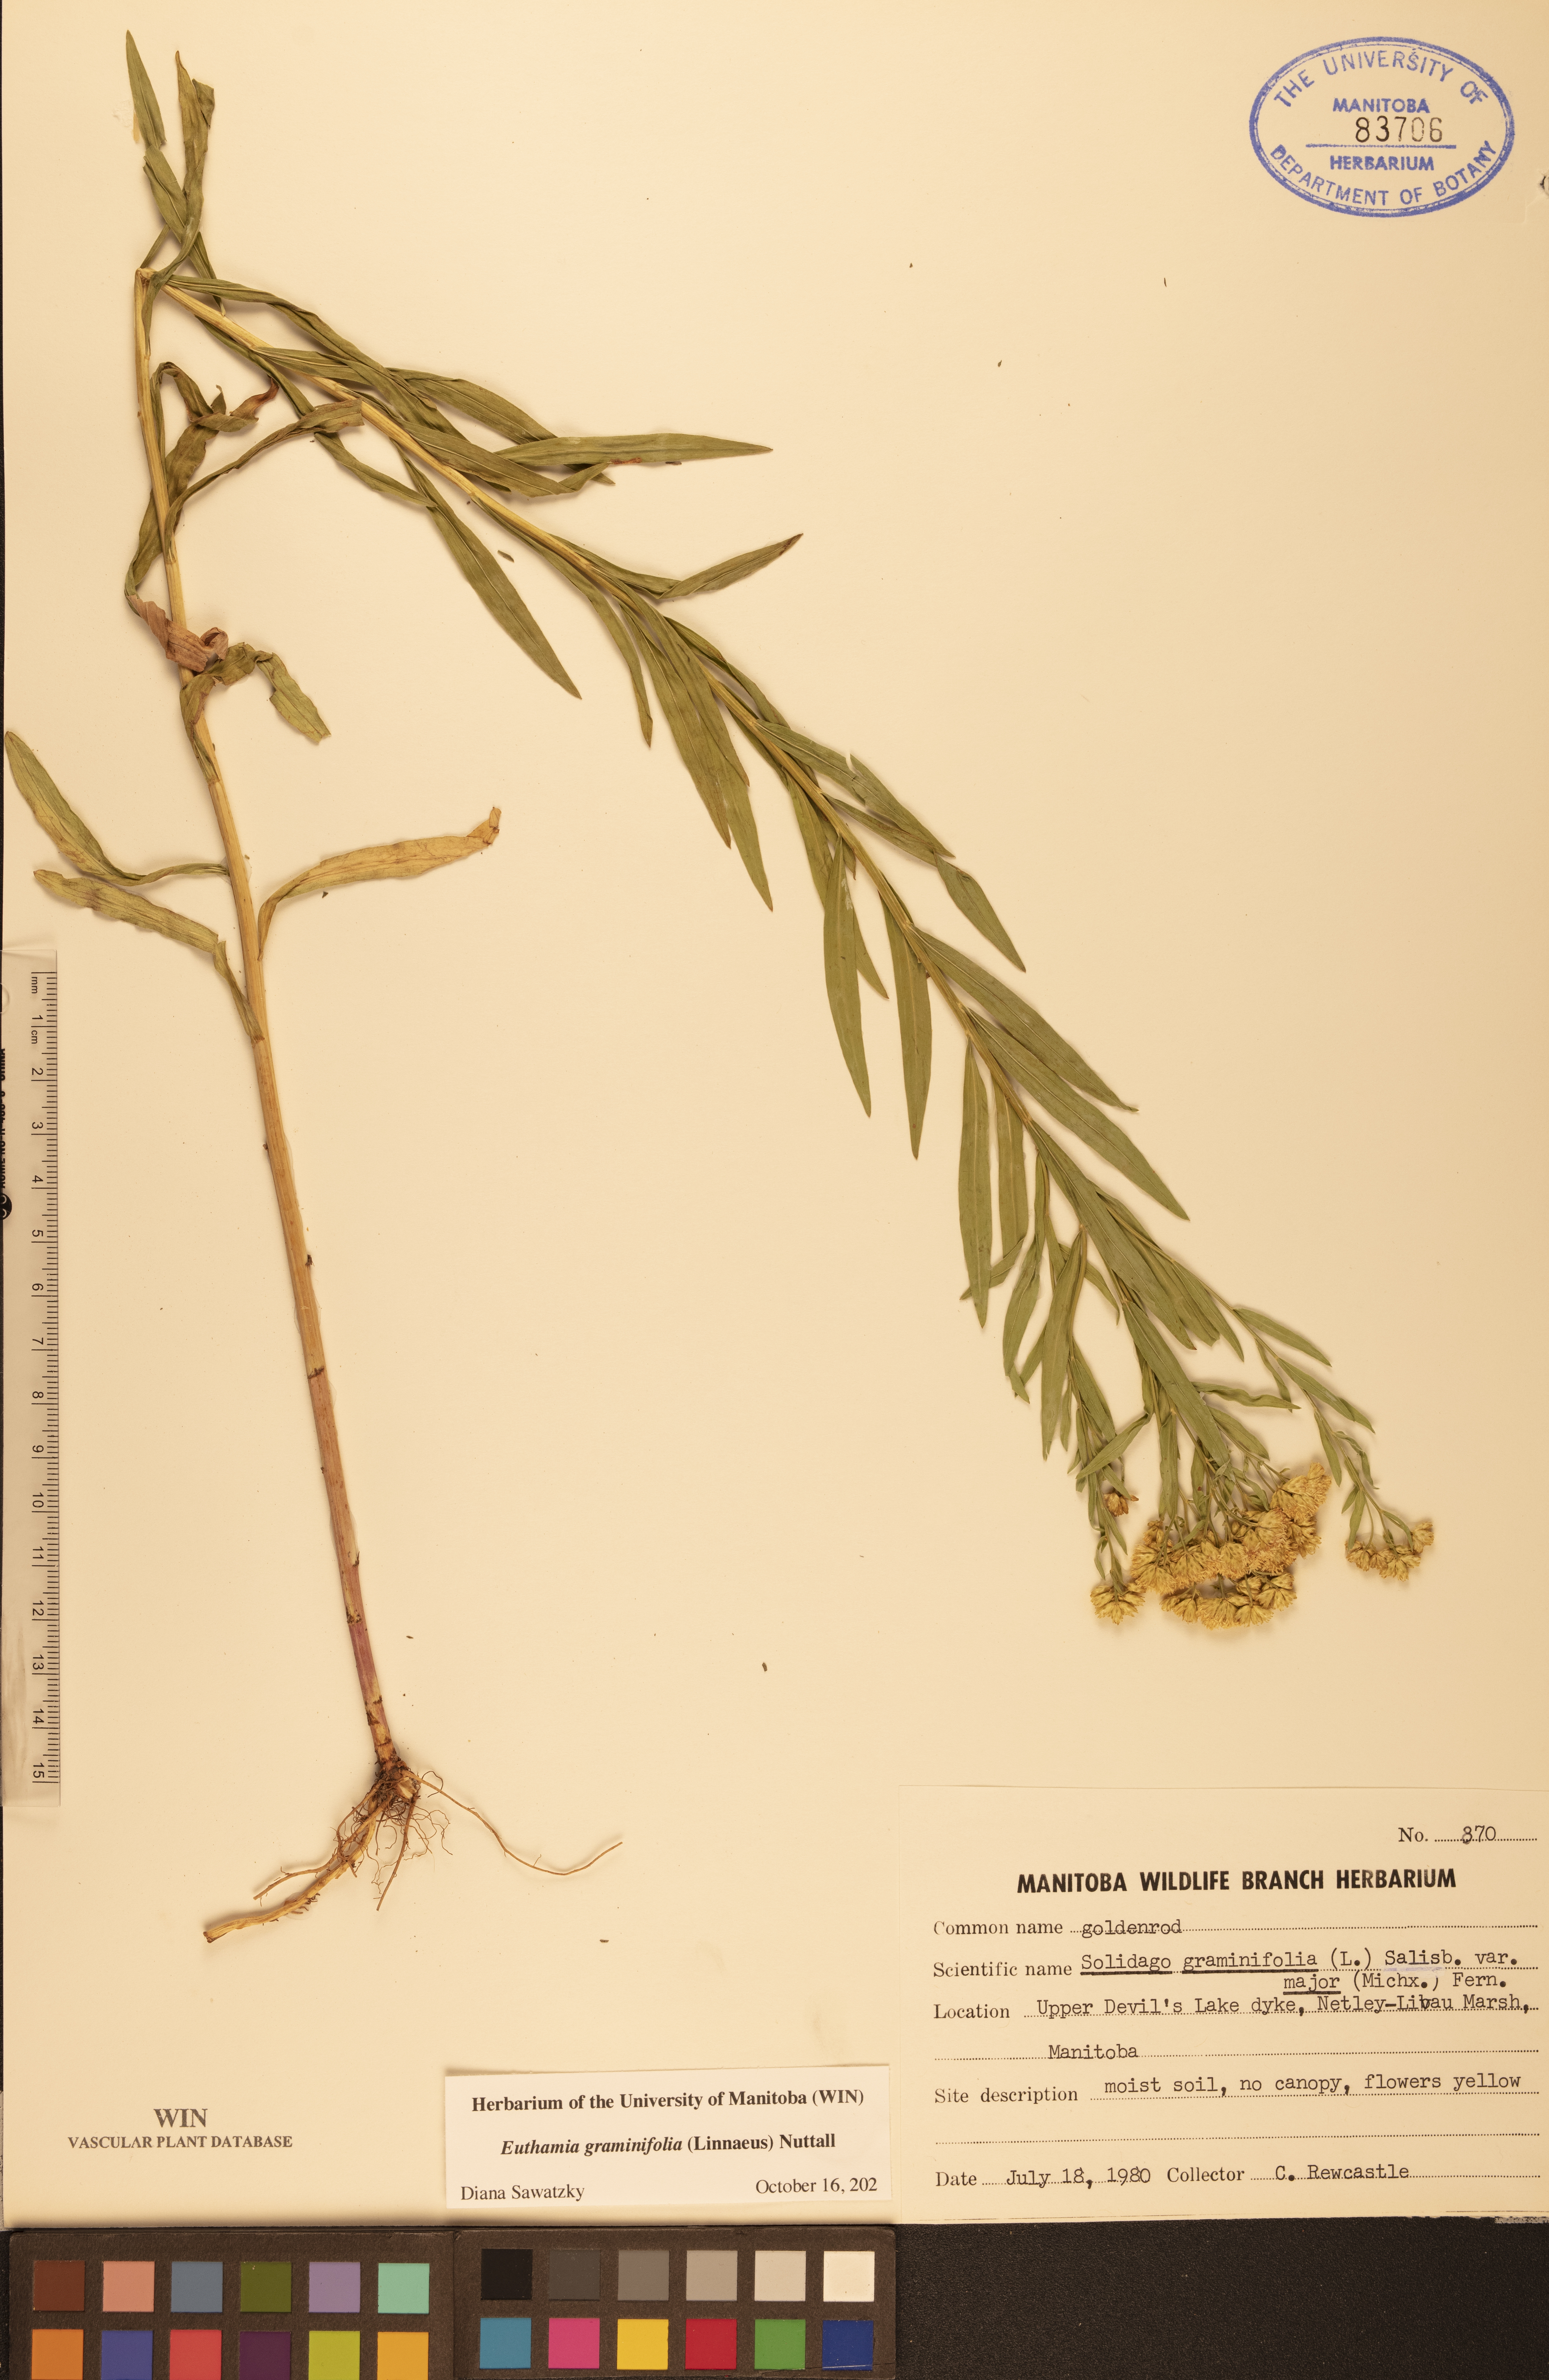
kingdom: Plantae
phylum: Tracheophyta
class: Magnoliopsida
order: Asterales
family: Asteraceae
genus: Euthamia
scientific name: Euthamia graminifolia
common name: Common goldentop
